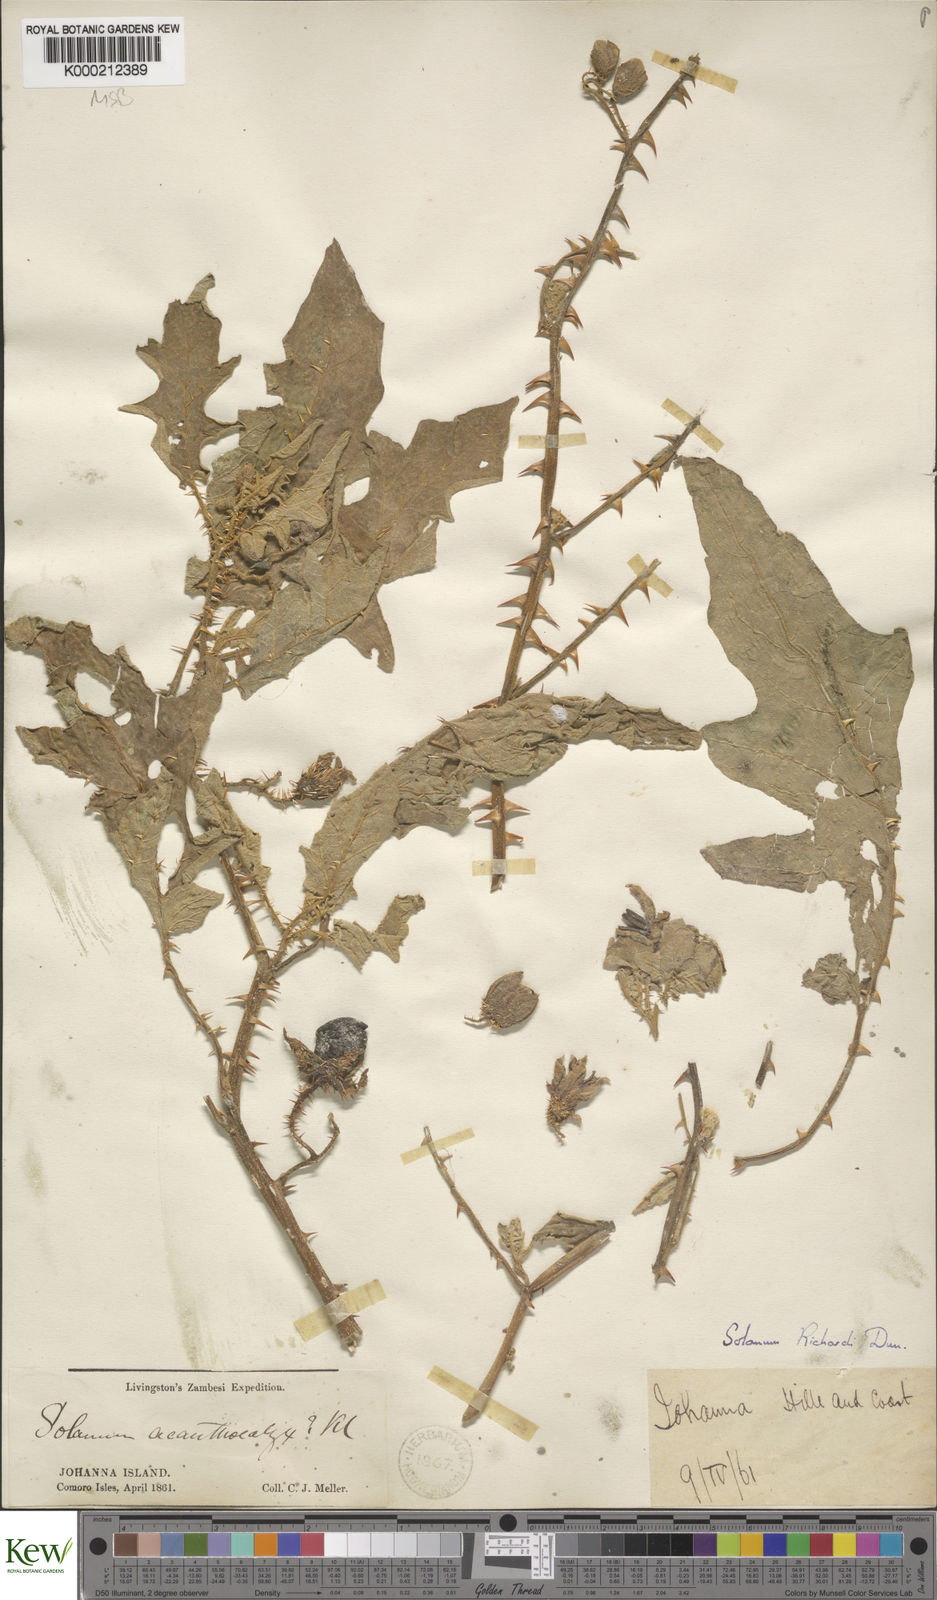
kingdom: Plantae
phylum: Tracheophyta
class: Magnoliopsida
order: Solanales
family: Solanaceae
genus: Solanum
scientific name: Solanum richardii
